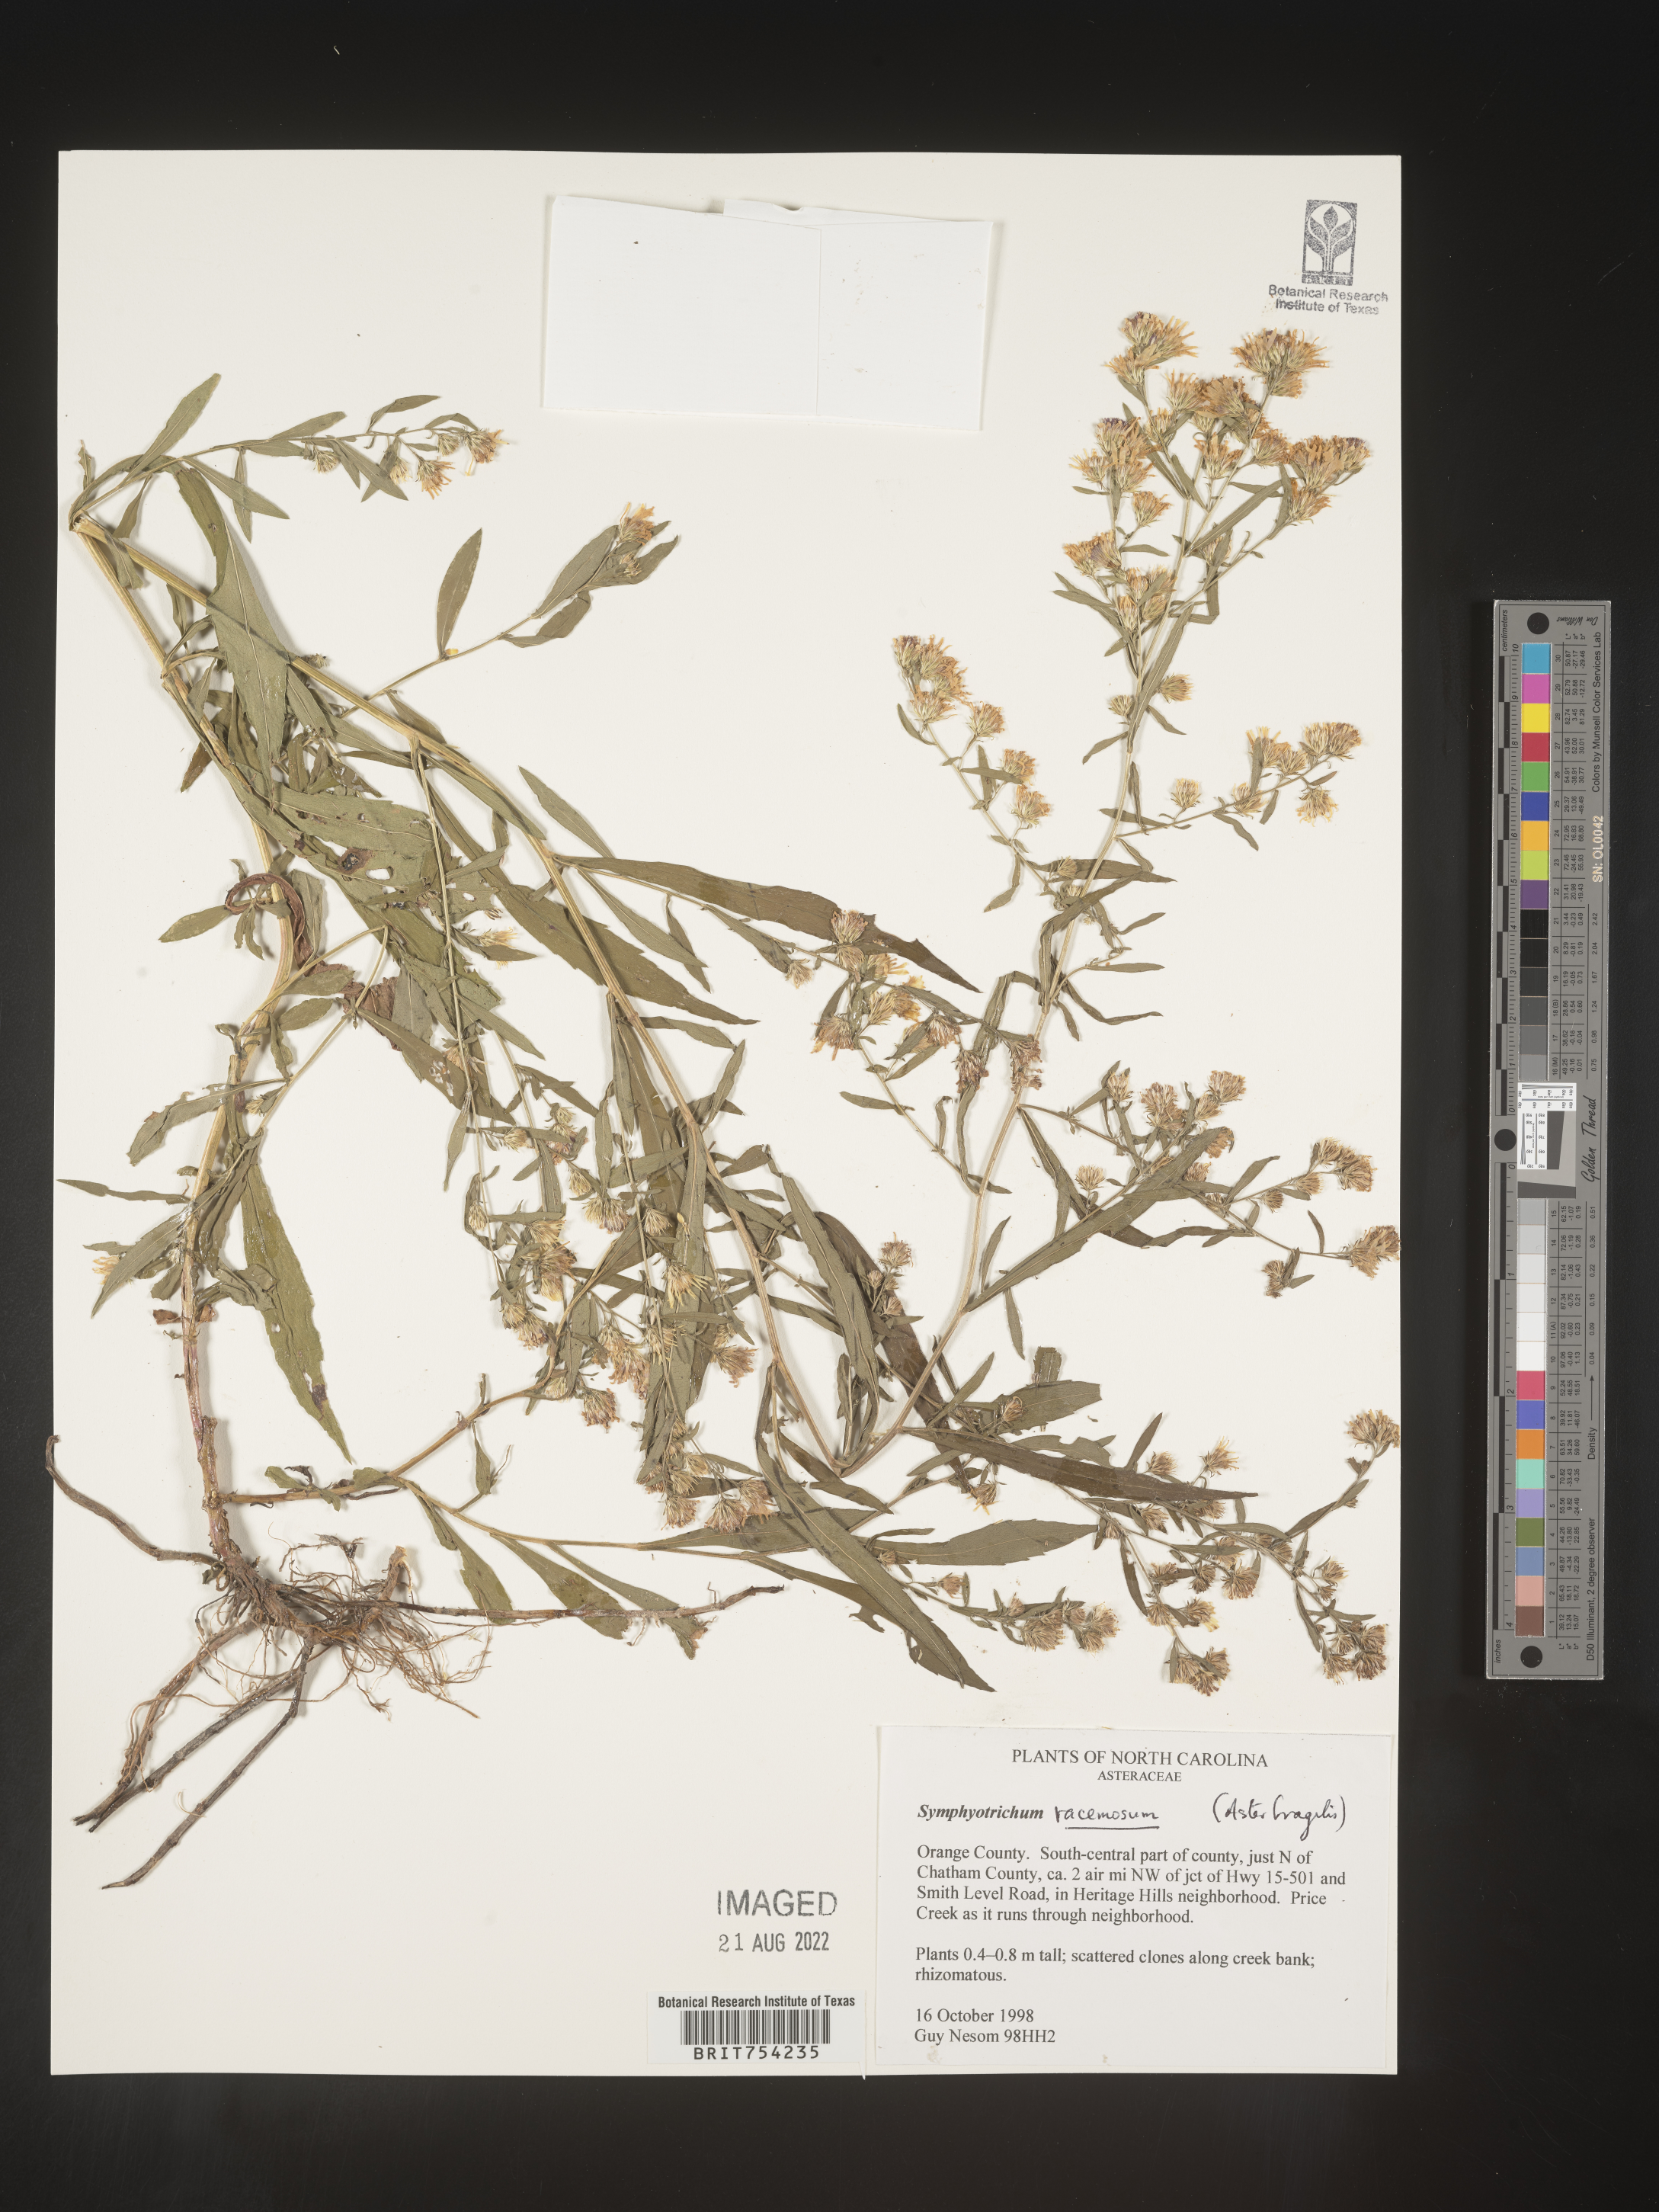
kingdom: Plantae
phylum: Tracheophyta
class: Magnoliopsida
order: Asterales
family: Asteraceae
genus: Symphyotrichum
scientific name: Symphyotrichum racemosum
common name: Small white aster
